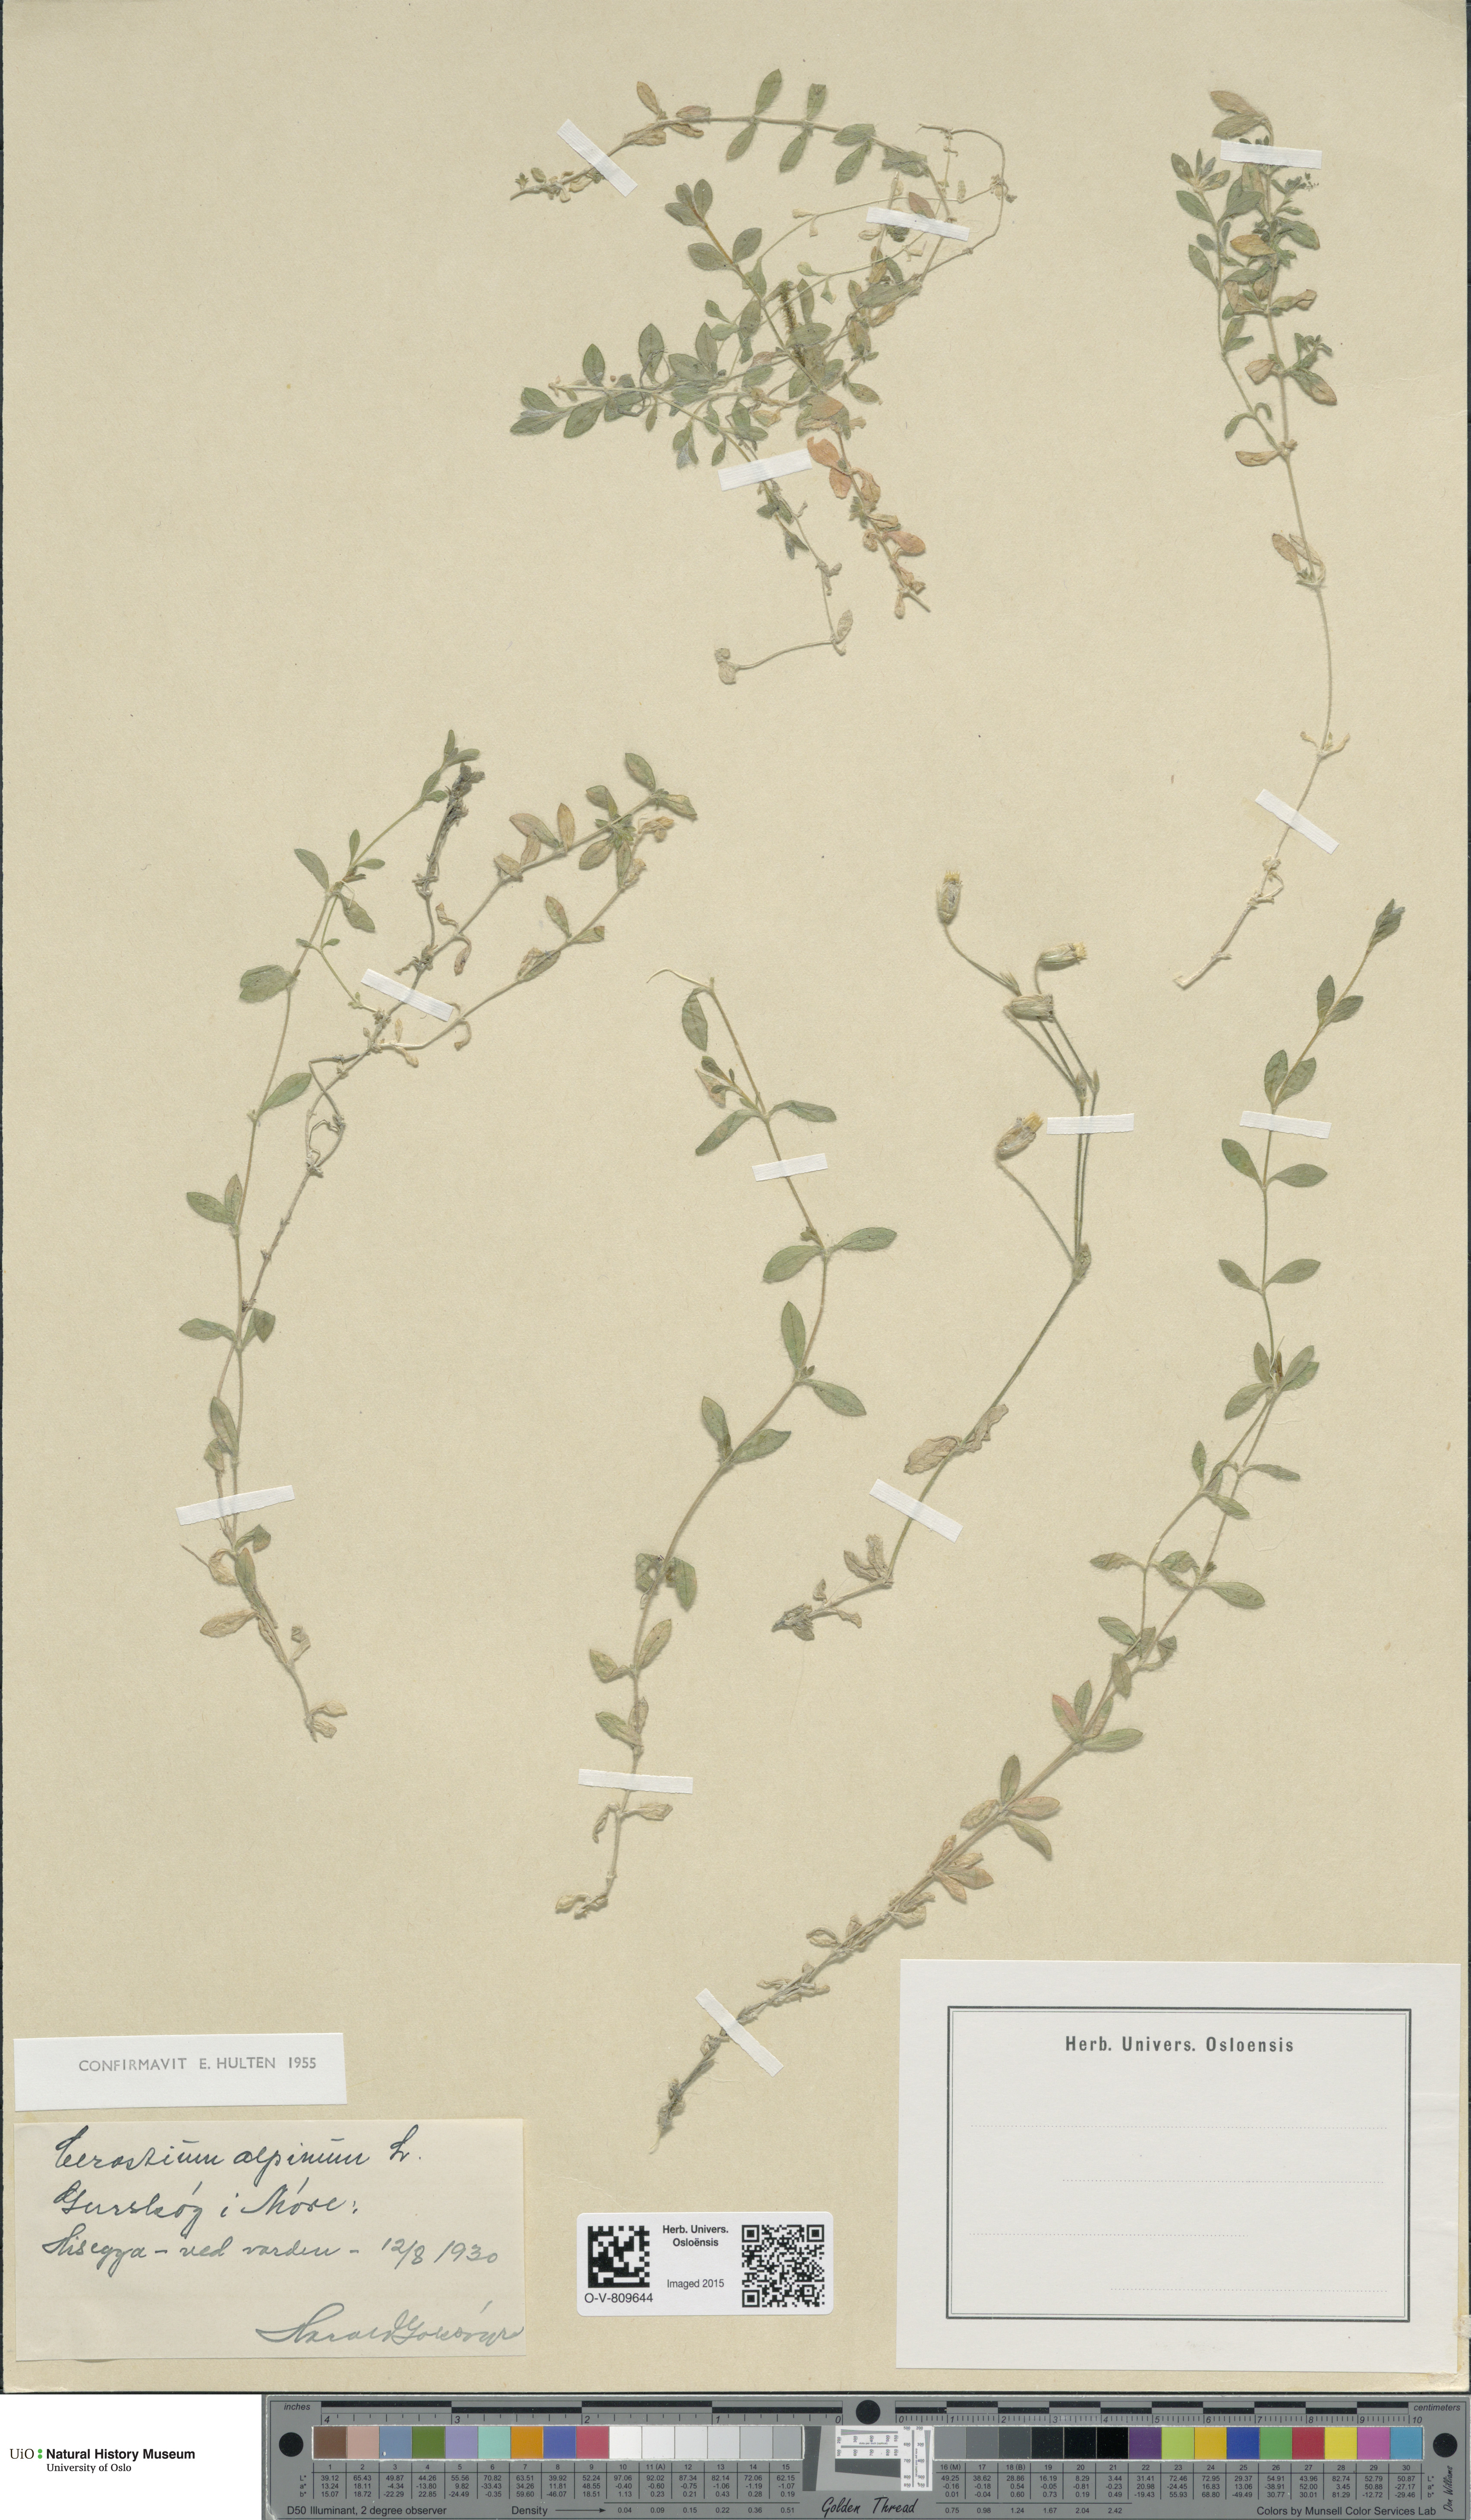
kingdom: Plantae
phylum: Tracheophyta
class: Magnoliopsida
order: Caryophyllales
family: Caryophyllaceae
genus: Cerastium
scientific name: Cerastium alpinum
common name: Alpine mouse-ear
